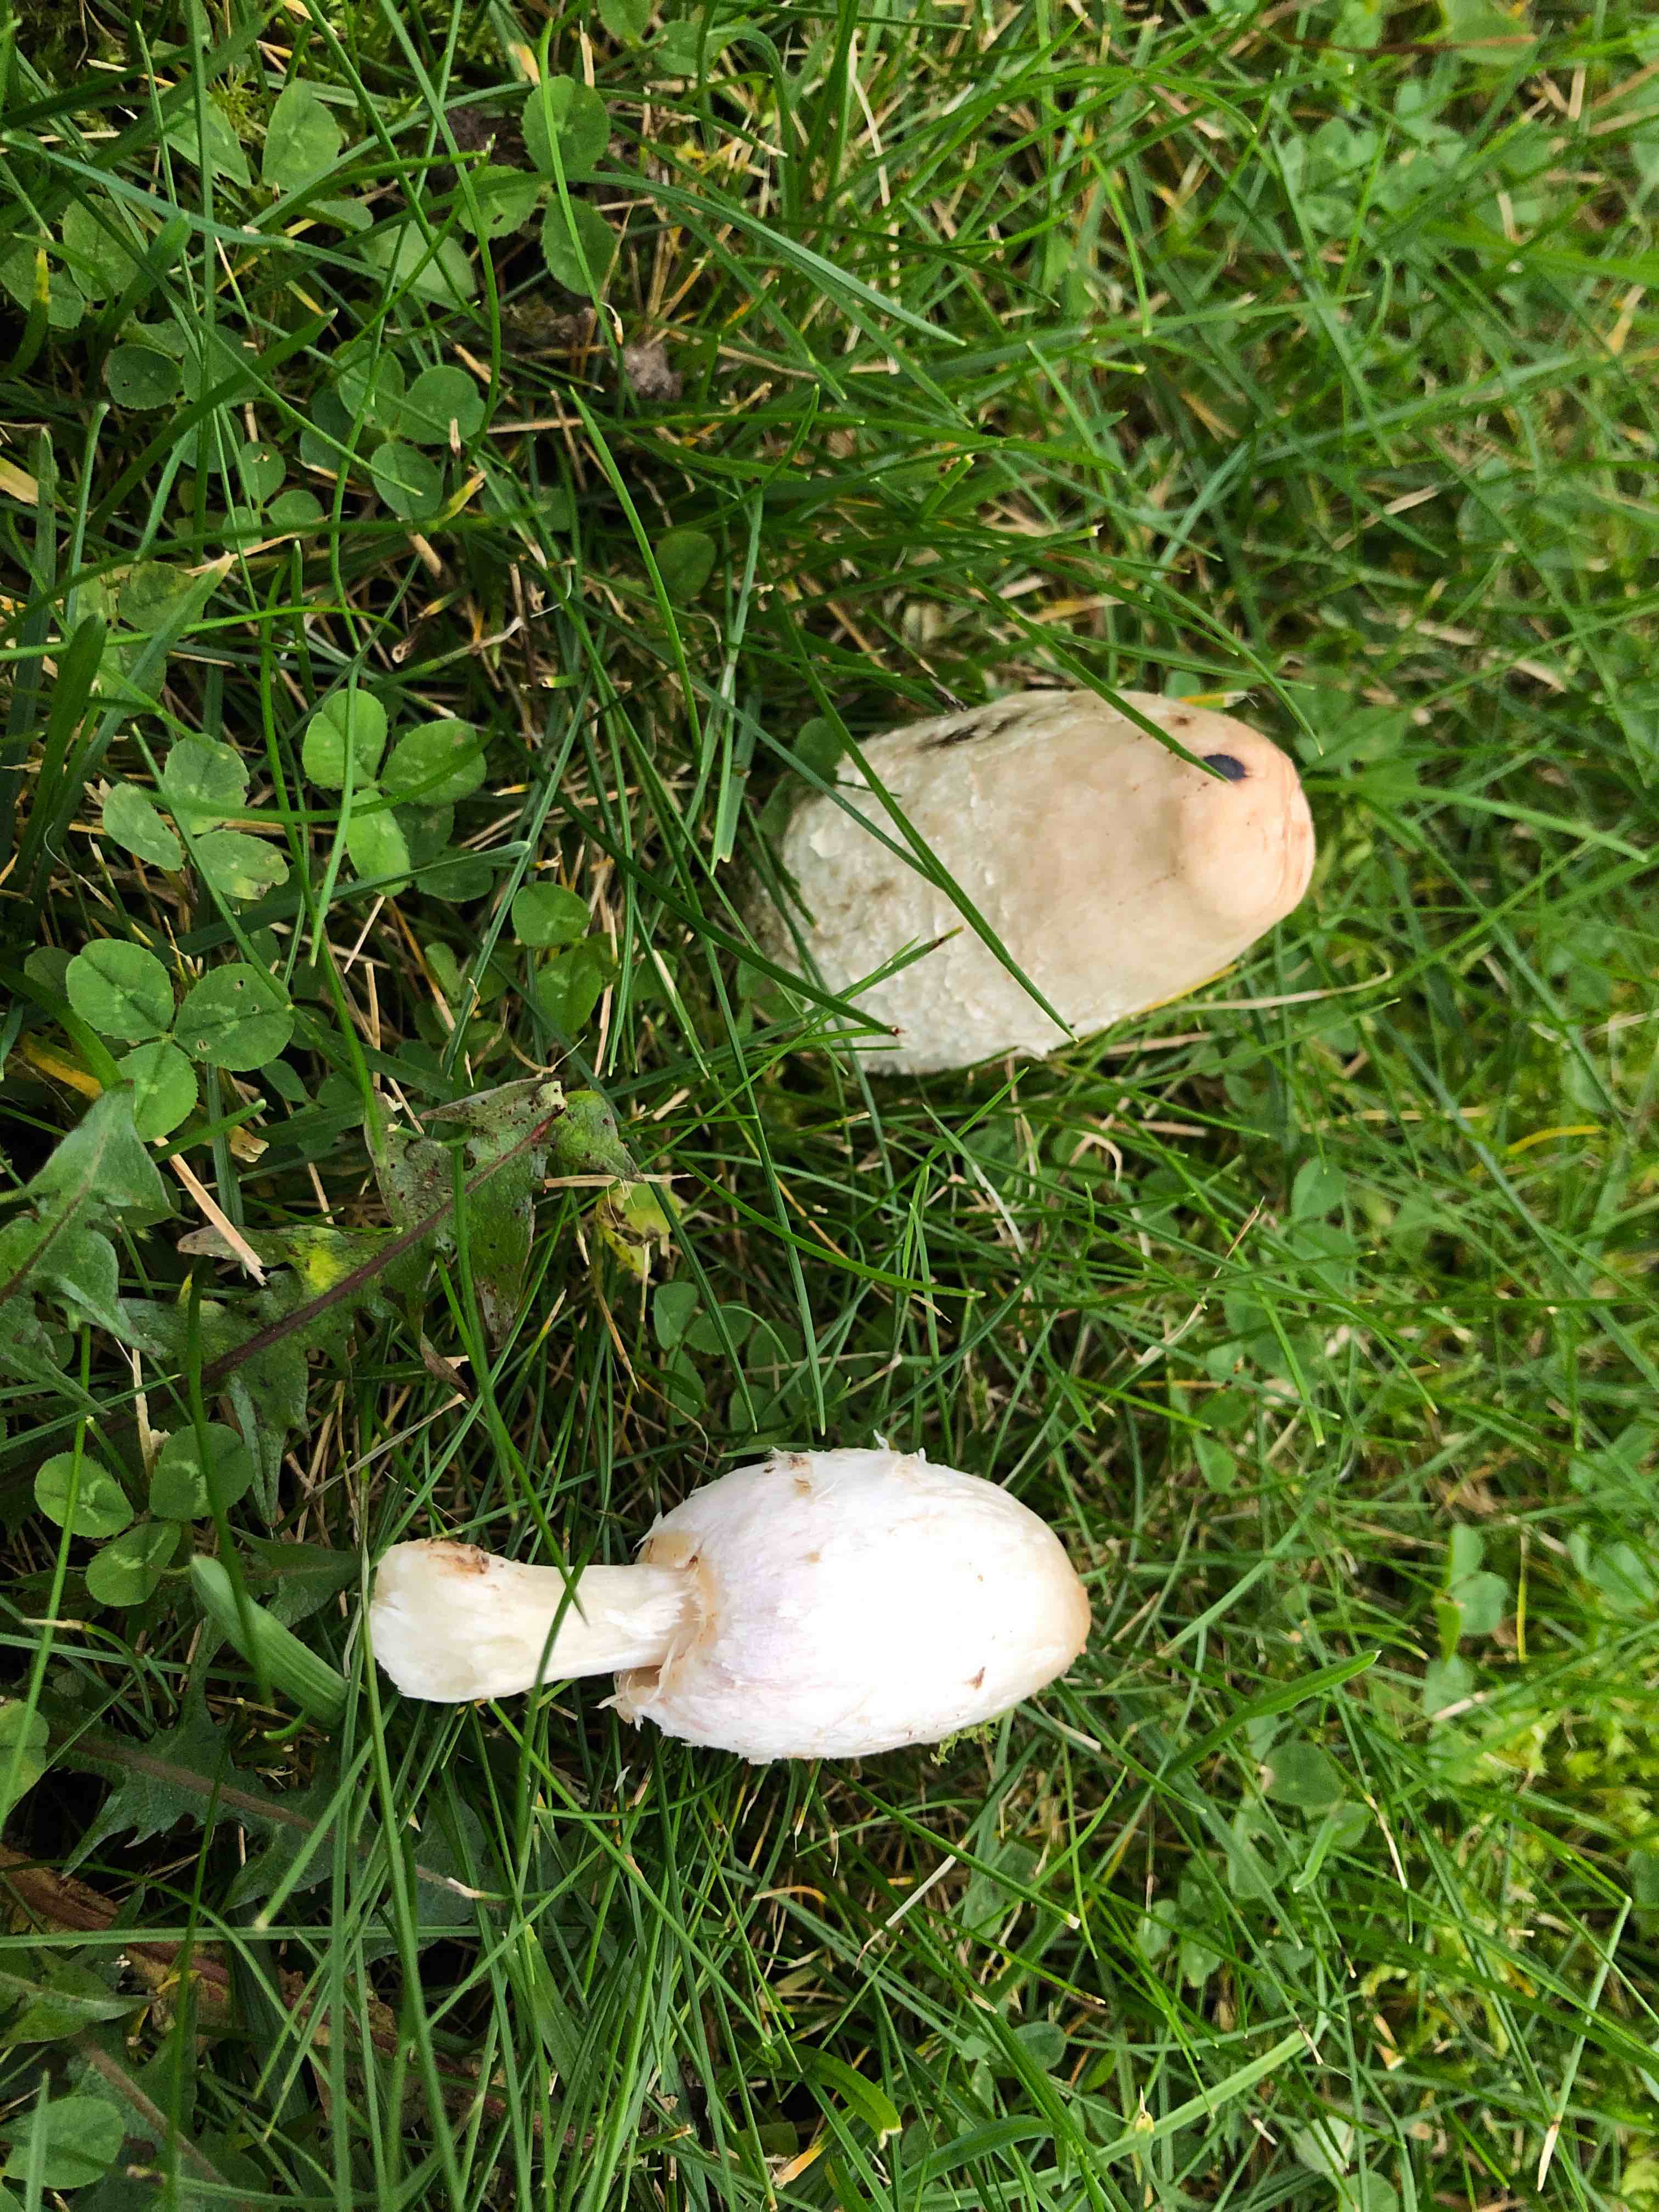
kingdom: Fungi
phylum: Basidiomycota
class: Agaricomycetes
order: Agaricales
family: Agaricaceae
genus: Coprinus
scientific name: Coprinus comatus
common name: stor parykhat
